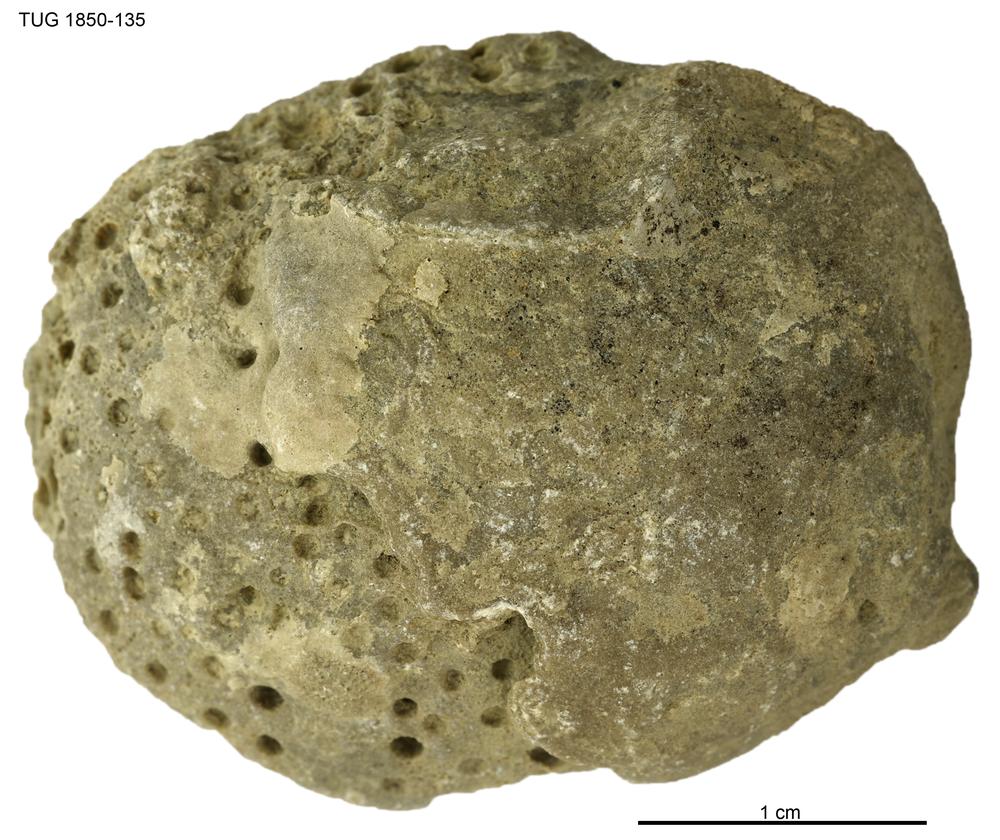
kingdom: Animalia
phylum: Cnidaria
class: Anthozoa
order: Heliolitina
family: Heliolitidae
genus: Heliolites
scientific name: Heliolites
